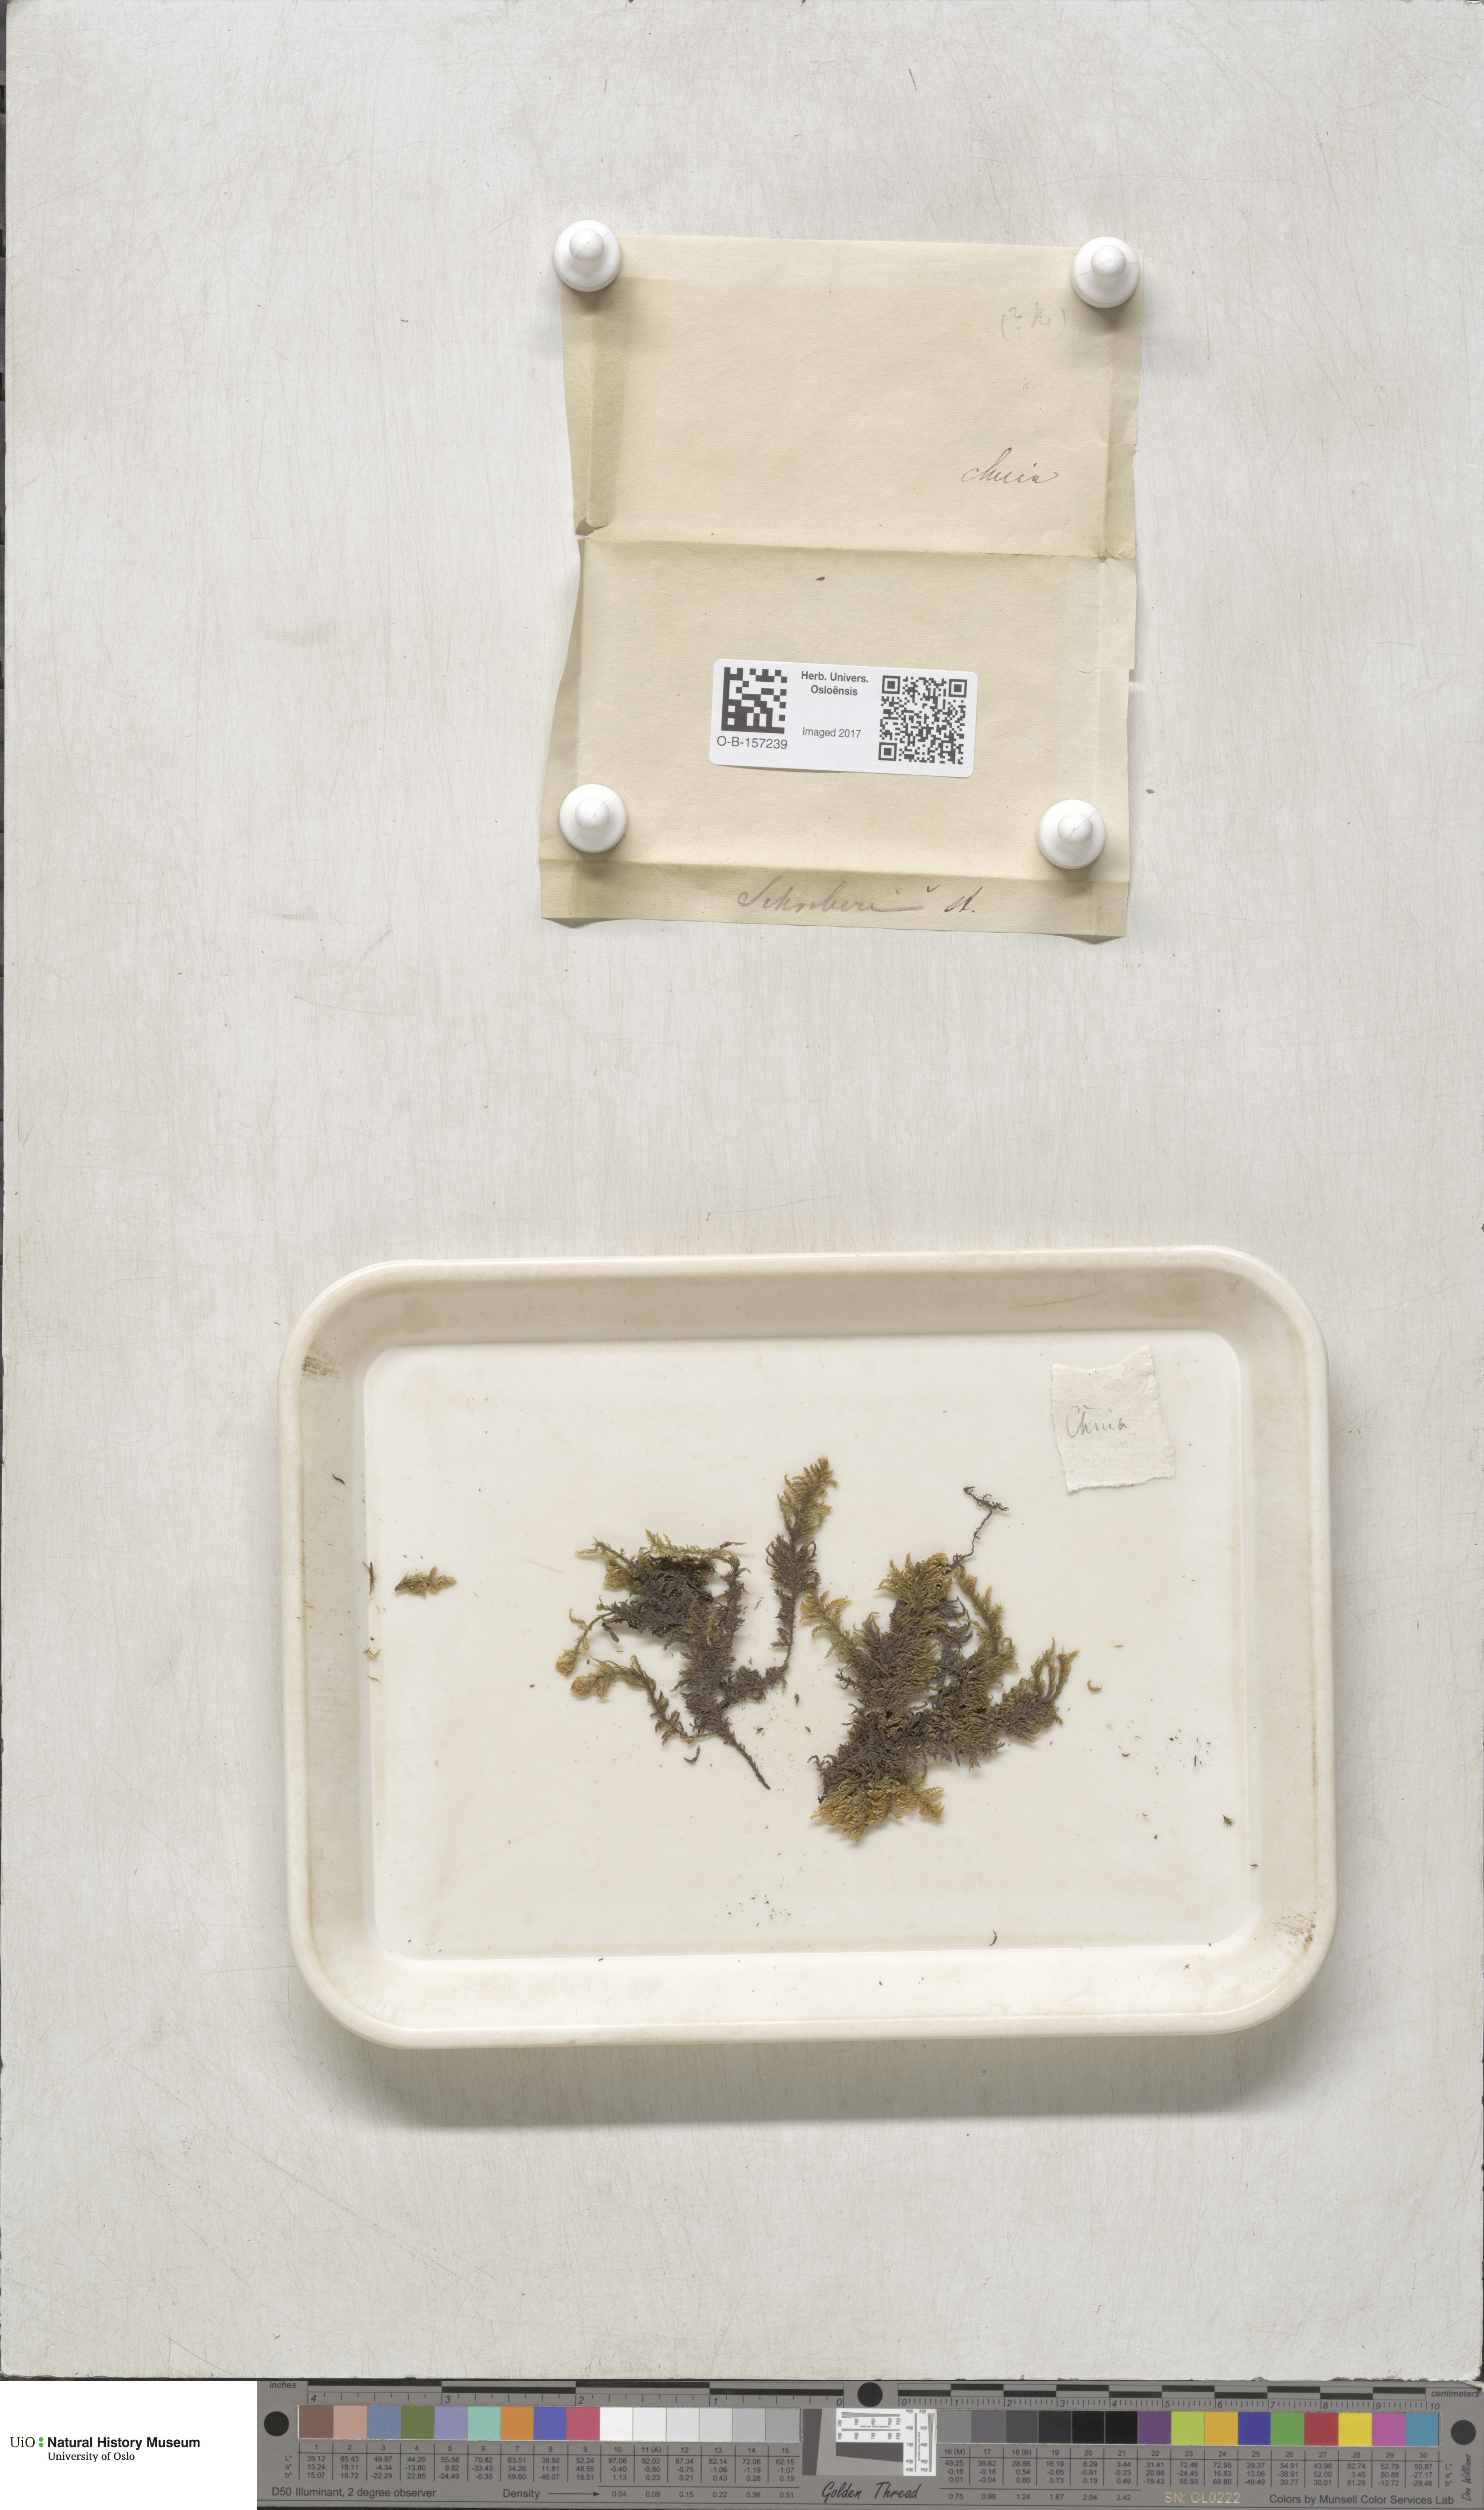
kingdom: Plantae
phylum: Bryophyta
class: Bryopsida
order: Hypnales
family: Hylocomiaceae
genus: Pleurozium
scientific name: Pleurozium schreberi
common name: Red-stemmed feather moss
